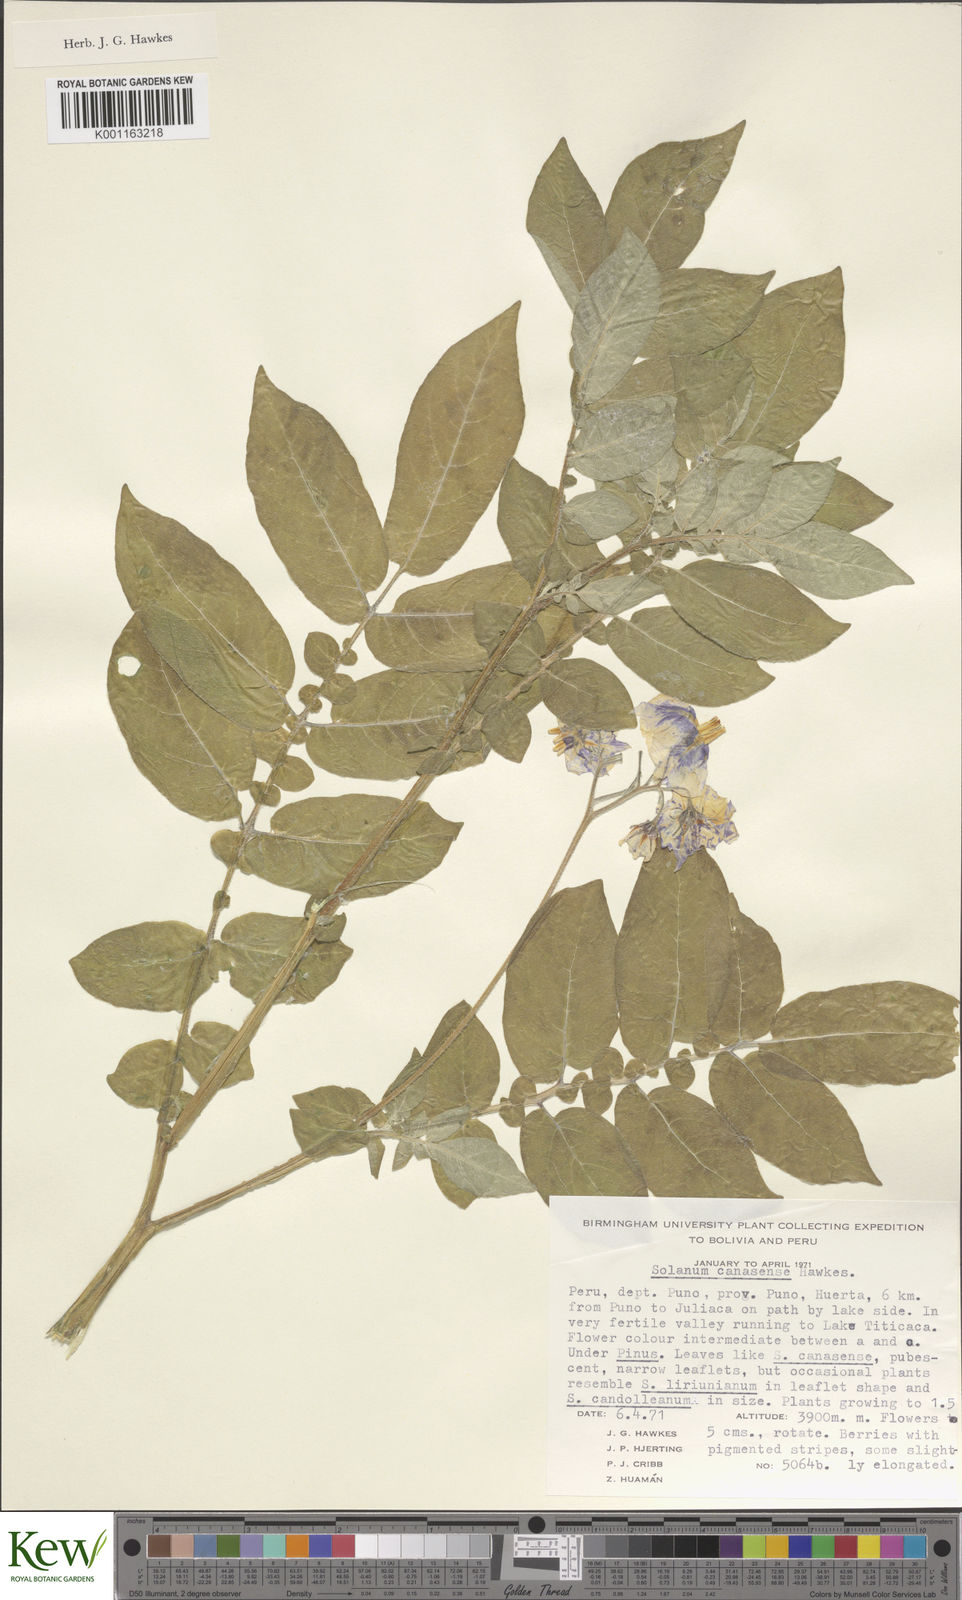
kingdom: Plantae
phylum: Tracheophyta
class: Magnoliopsida
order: Solanales
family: Solanaceae
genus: Solanum
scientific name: Solanum candolleanum
